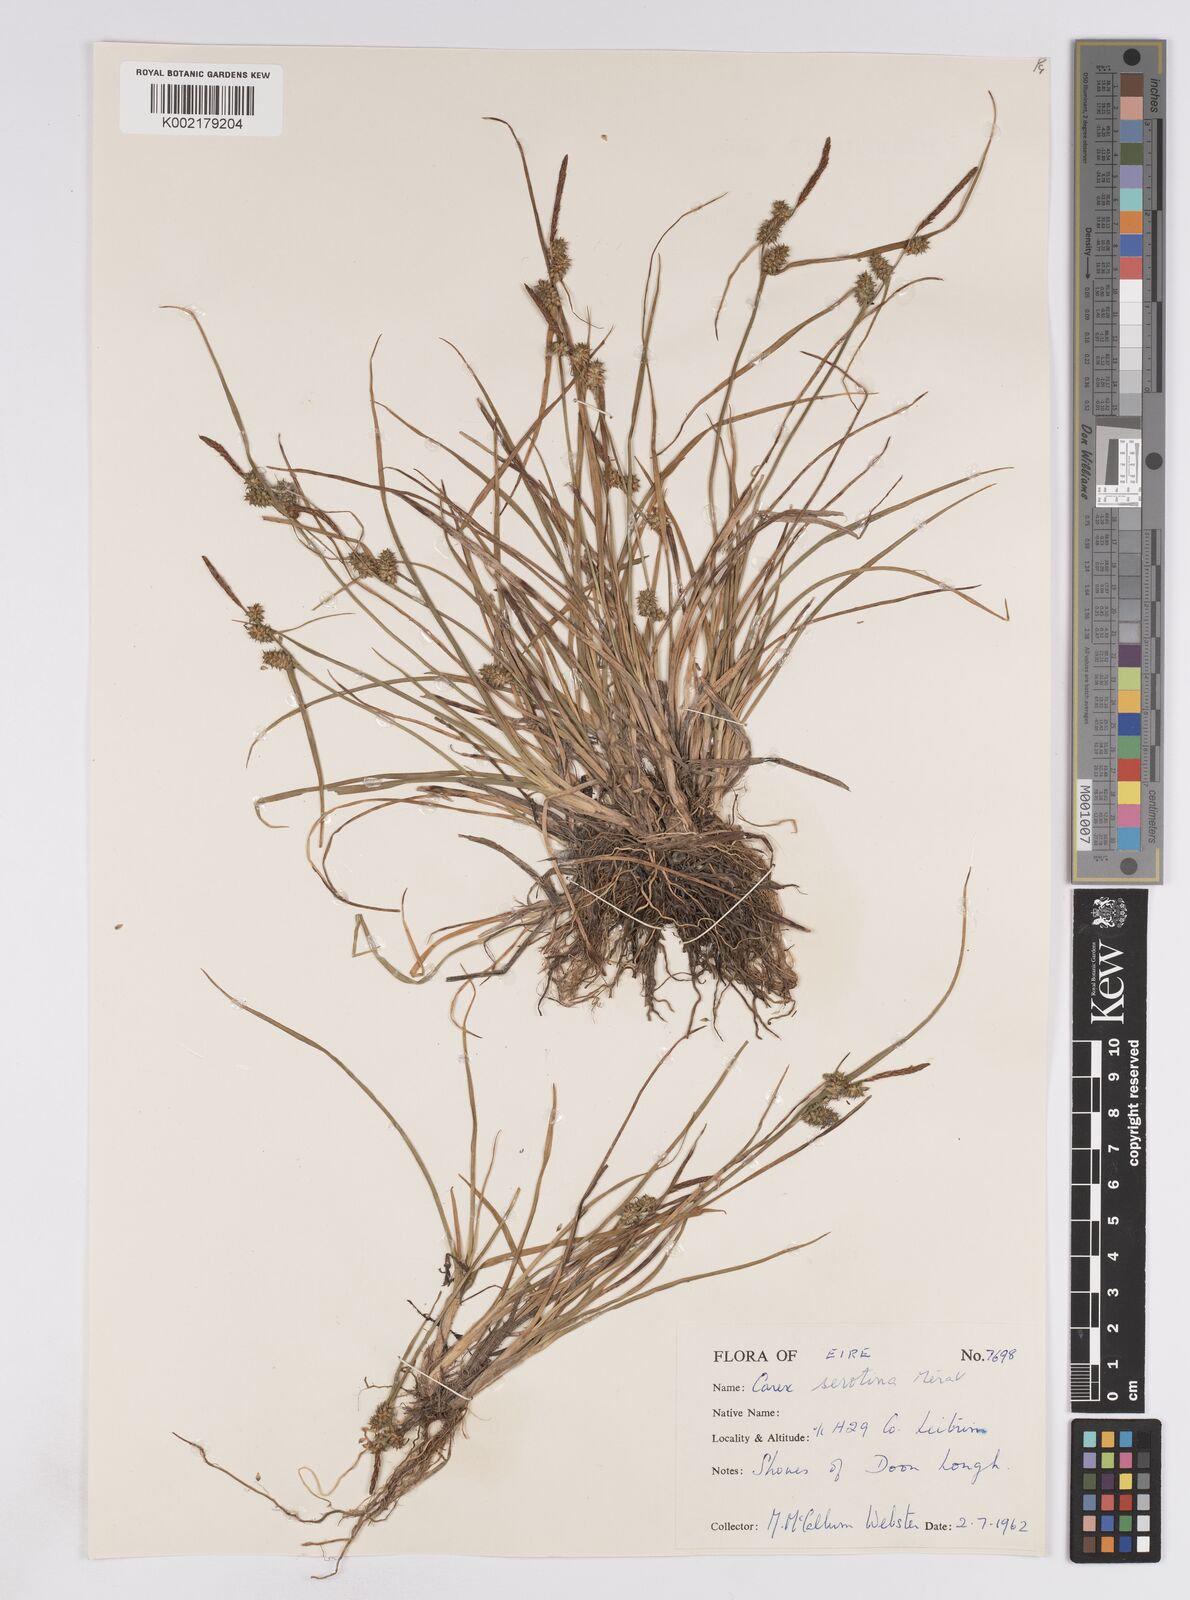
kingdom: Plantae
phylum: Tracheophyta
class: Liliopsida
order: Poales
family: Cyperaceae
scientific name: Cyperaceae
